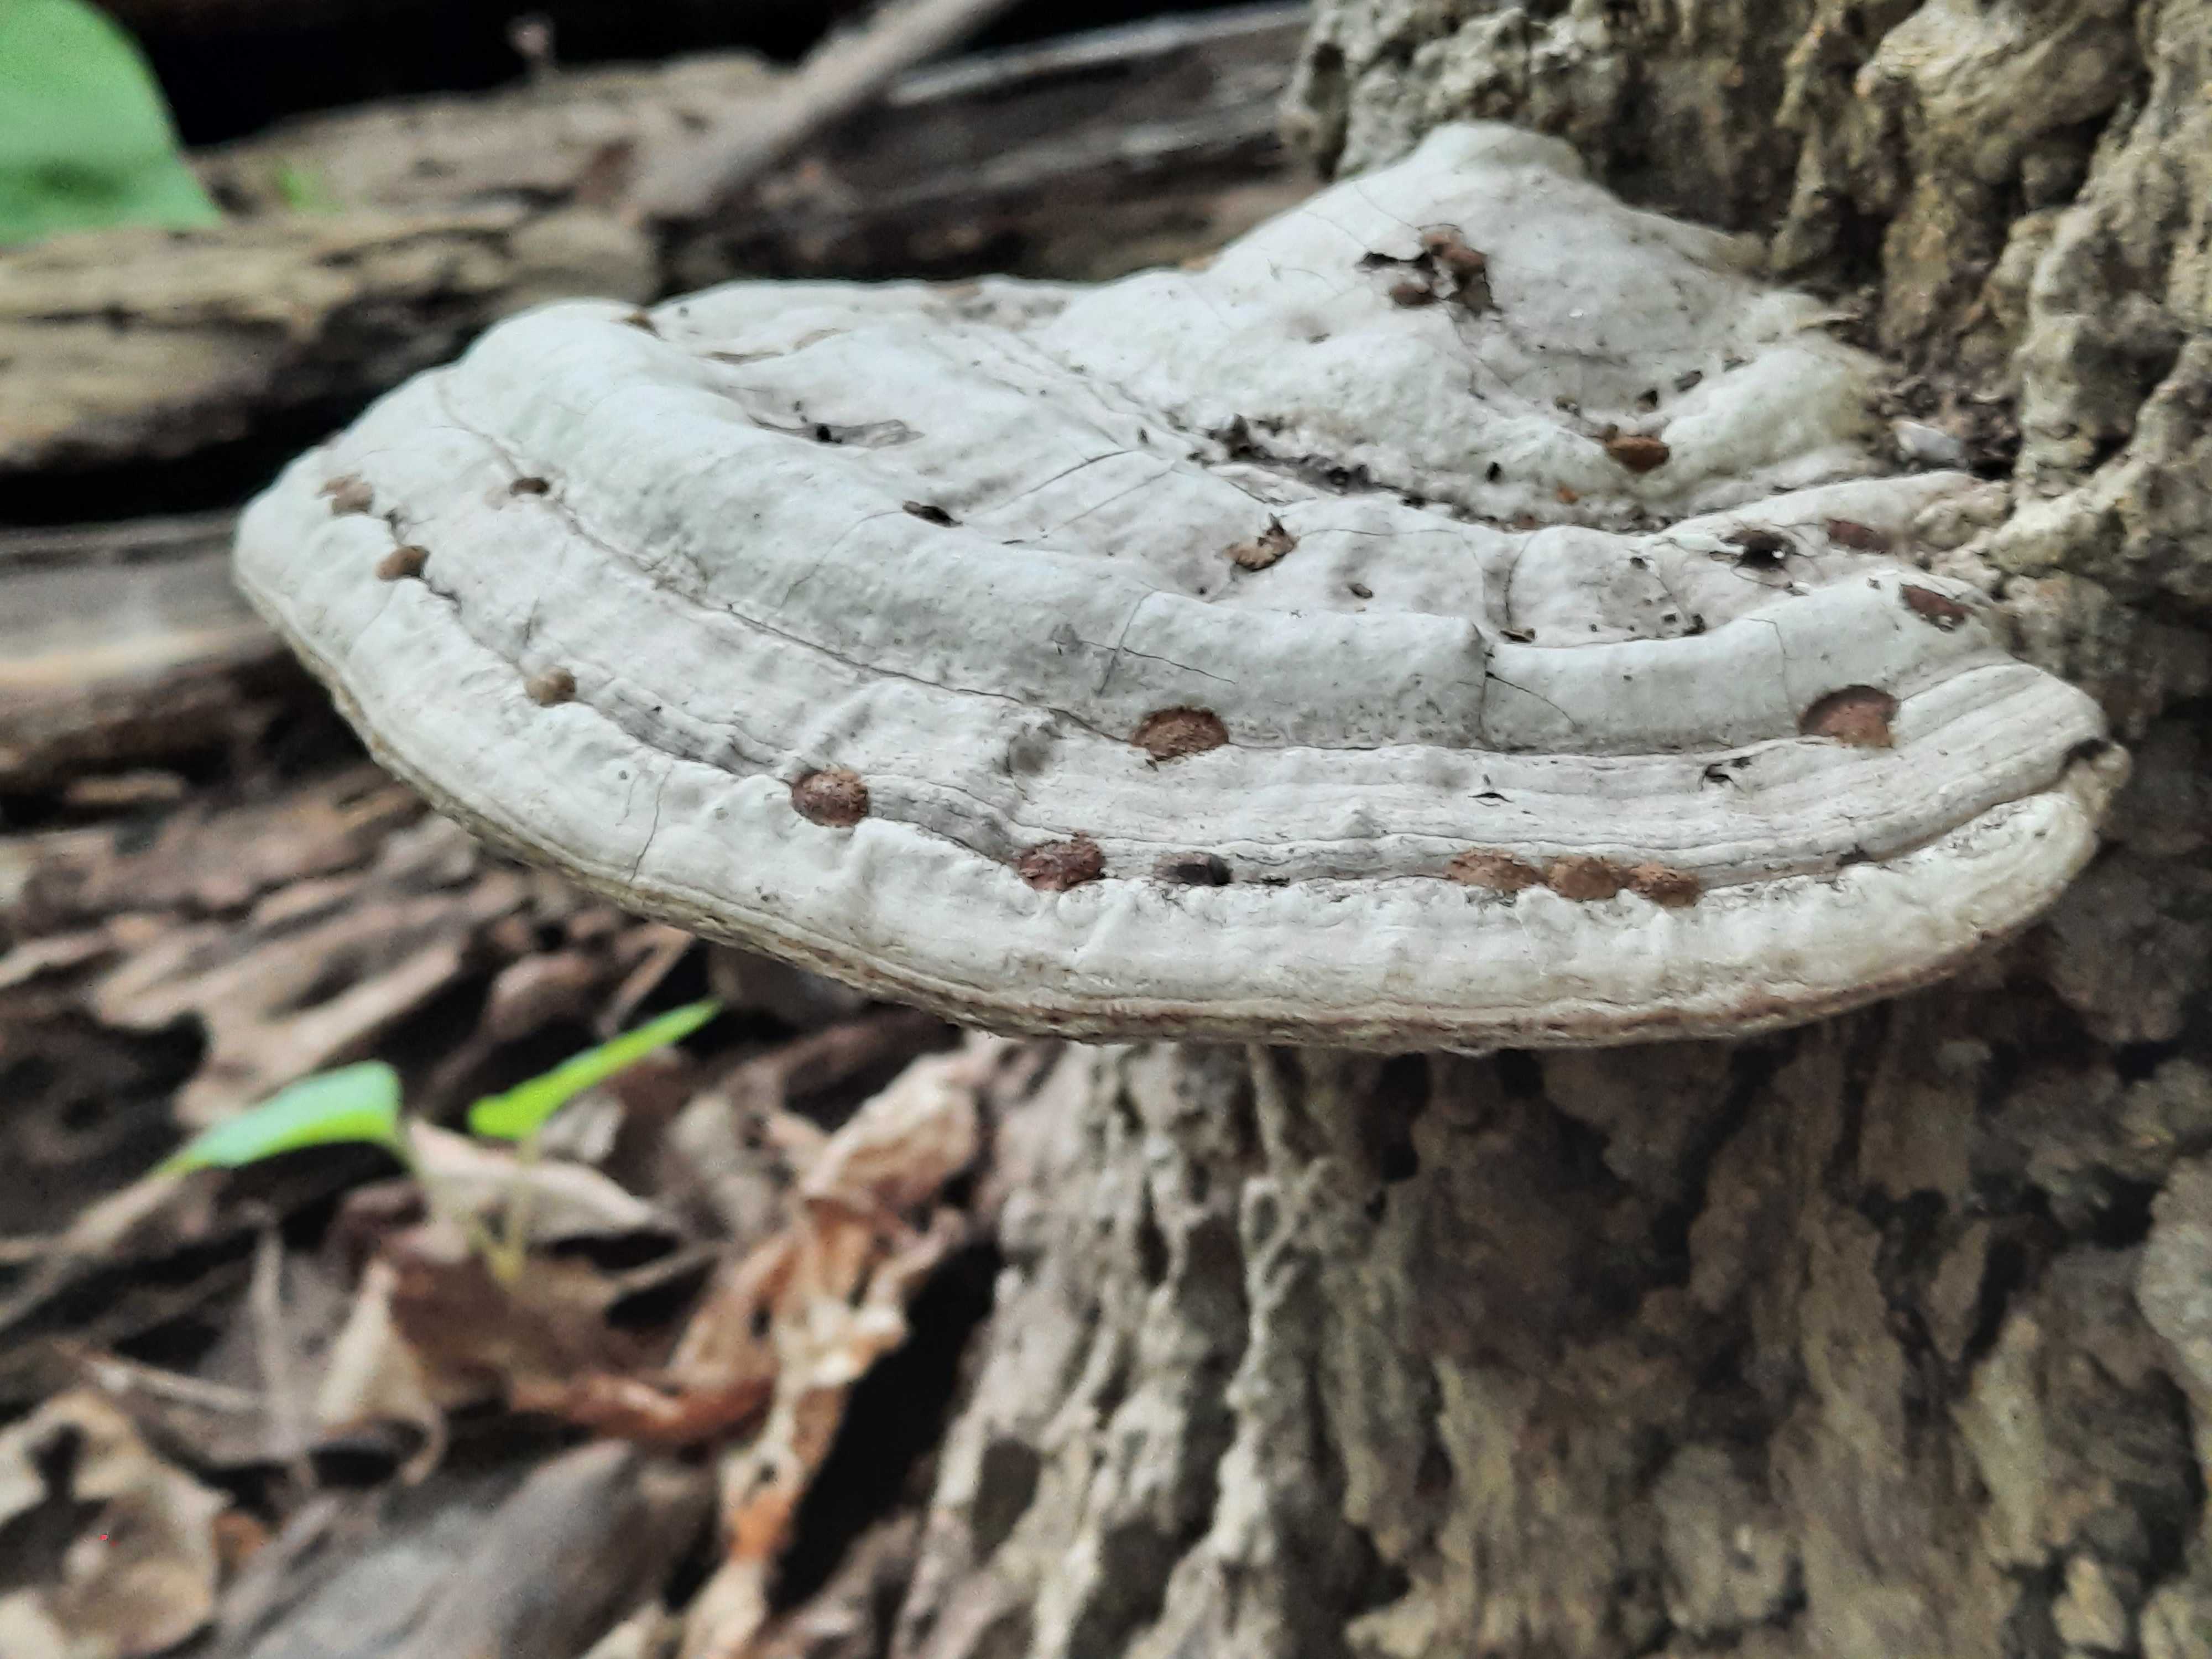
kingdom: Fungi
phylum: Basidiomycota
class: Agaricomycetes
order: Polyporales
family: Polyporaceae
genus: Ganoderma
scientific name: Ganoderma applanatum
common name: flad lakporesvamp
